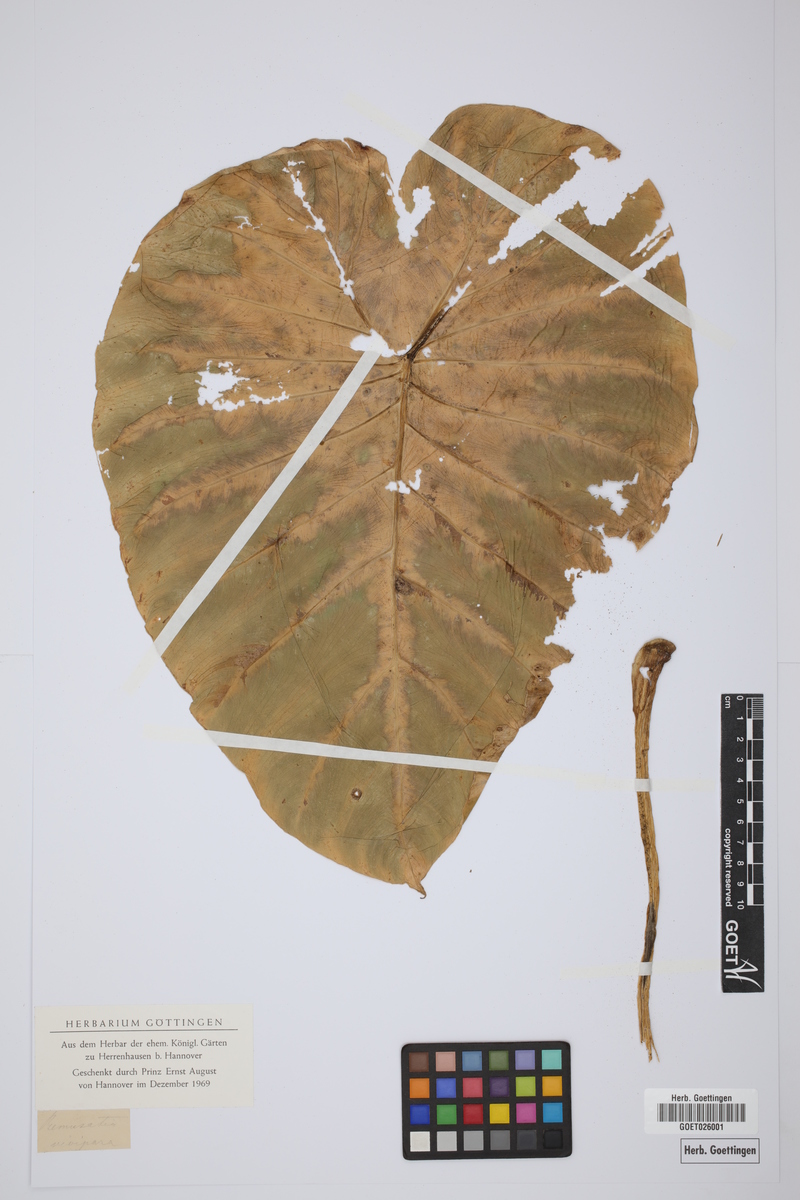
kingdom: Plantae
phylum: Tracheophyta
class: Liliopsida
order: Alismatales
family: Araceae
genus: Remusatia
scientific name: Remusatia vivipara
